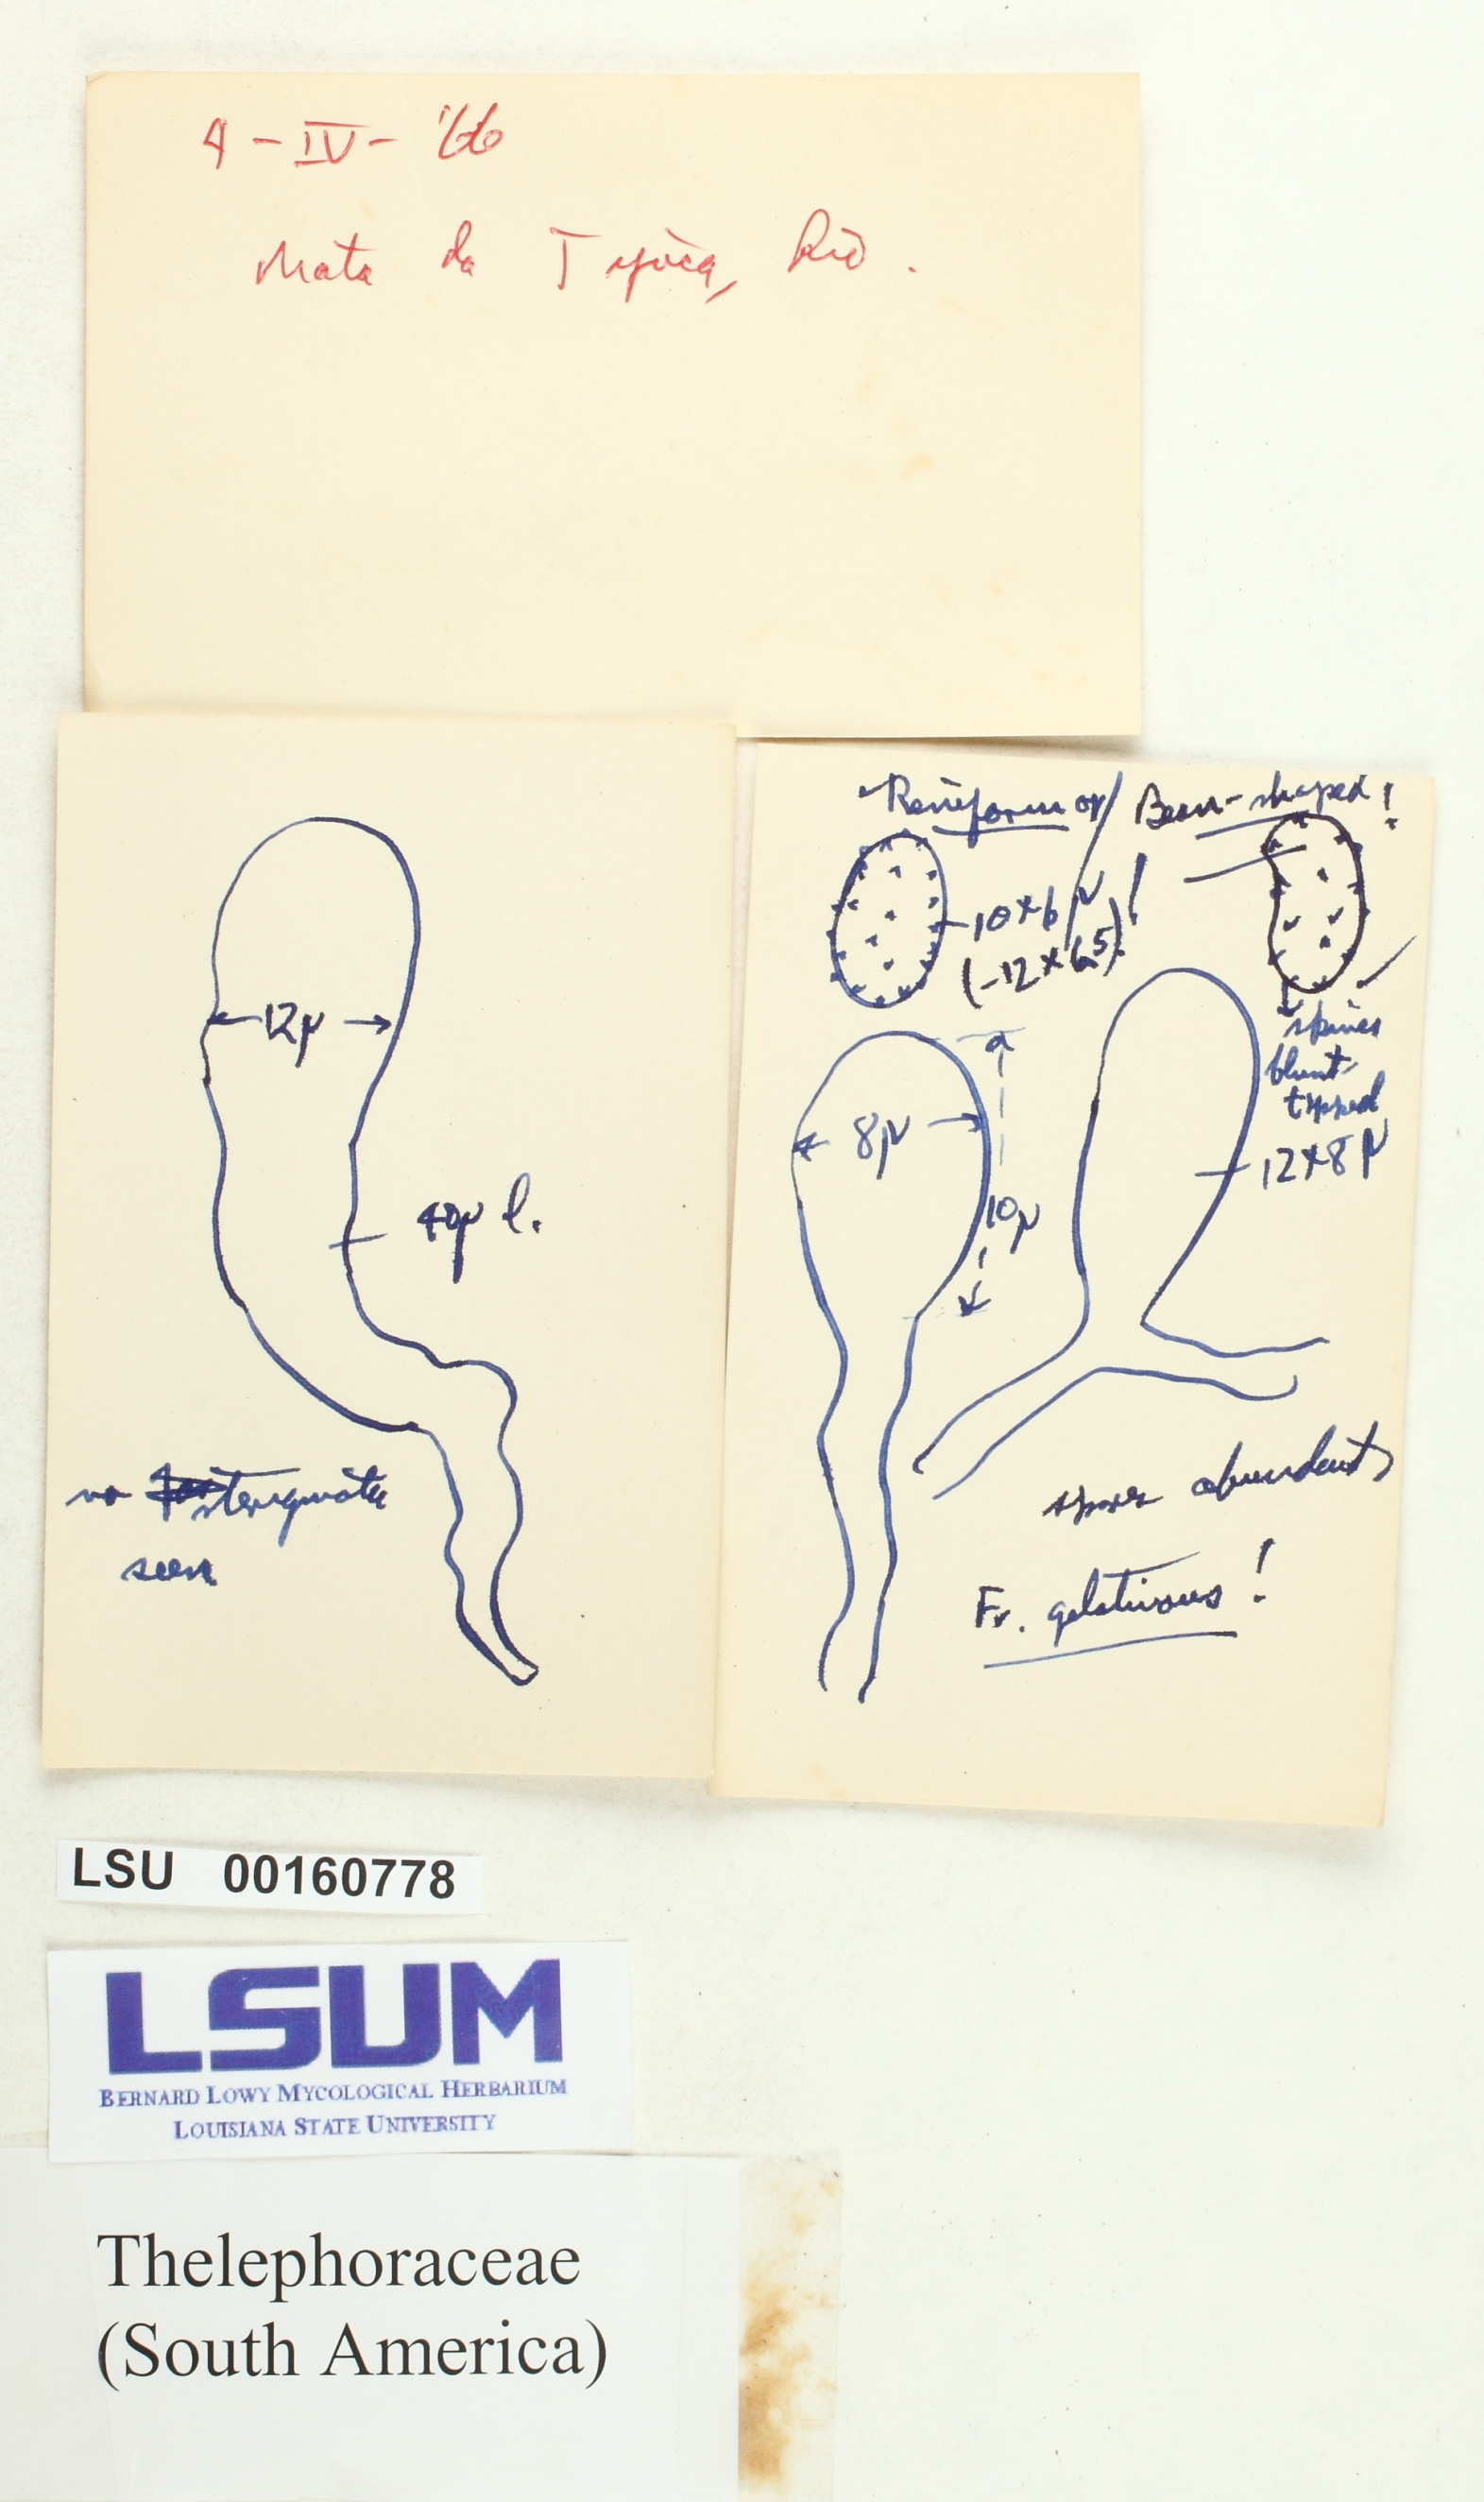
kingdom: Fungi
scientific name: Fungi
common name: Fungi
